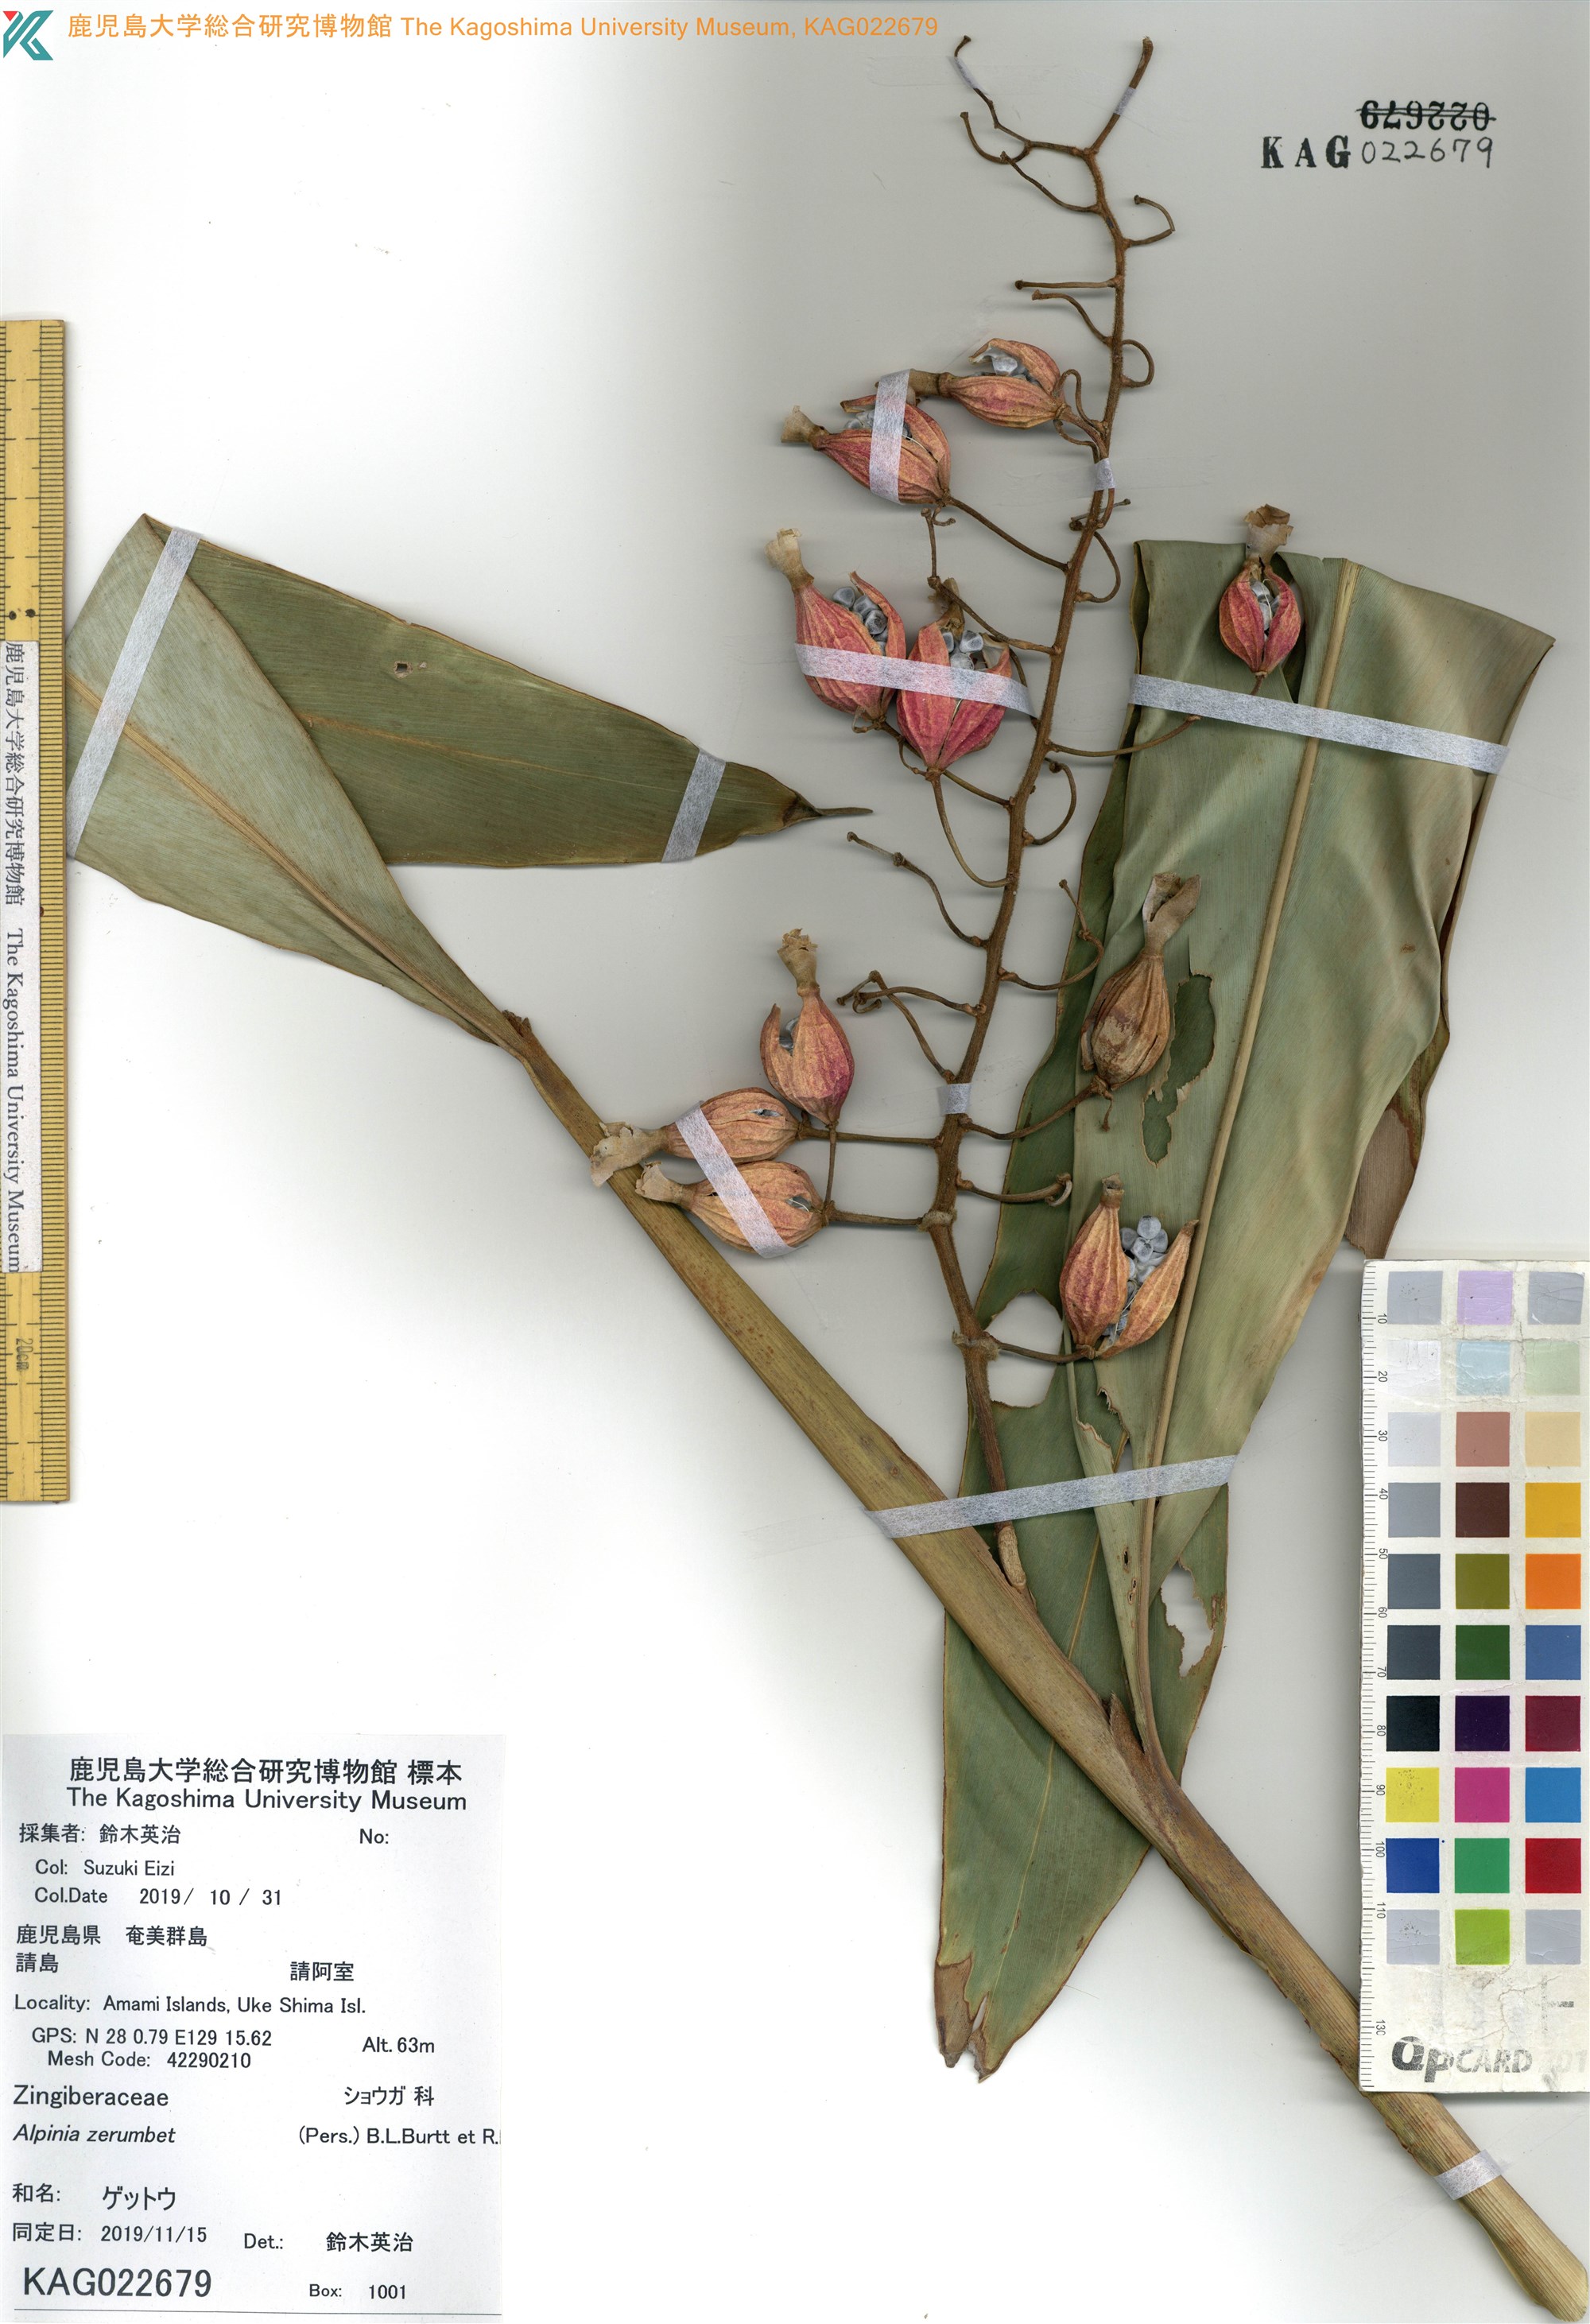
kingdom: Plantae
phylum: Tracheophyta
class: Liliopsida
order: Zingiberales
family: Zingiberaceae
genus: Alpinia
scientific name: Alpinia zerumbet
